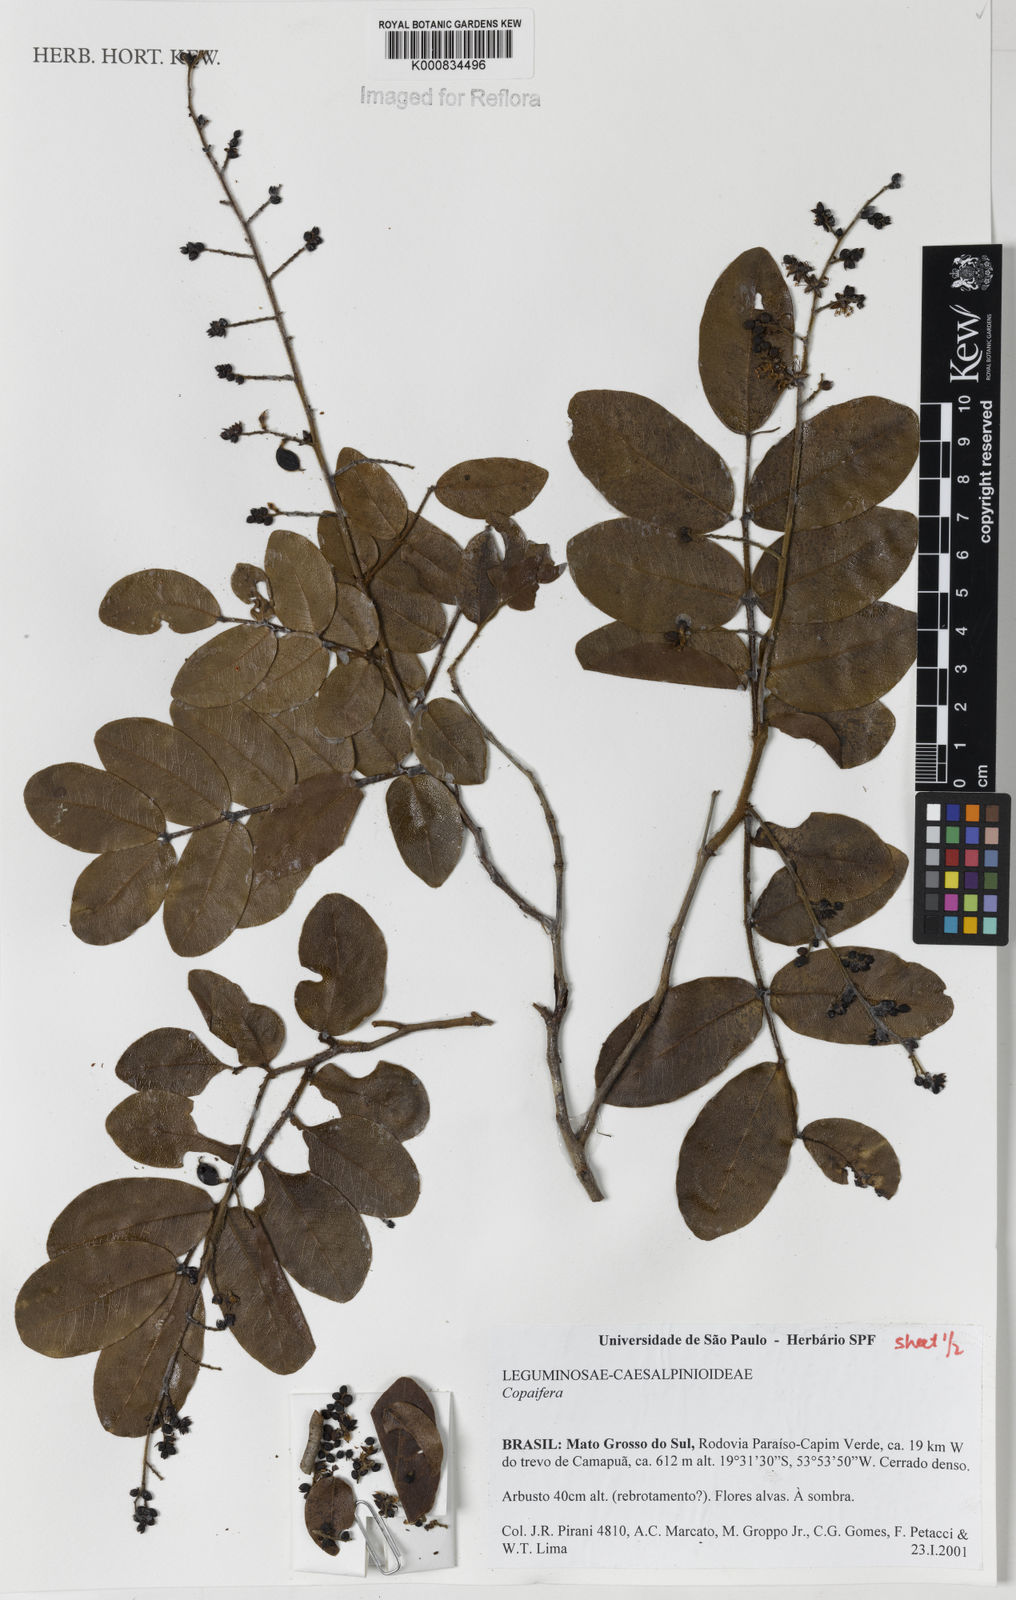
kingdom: Plantae
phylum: Tracheophyta
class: Magnoliopsida
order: Fabales
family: Fabaceae
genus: Copaifera
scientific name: Copaifera
